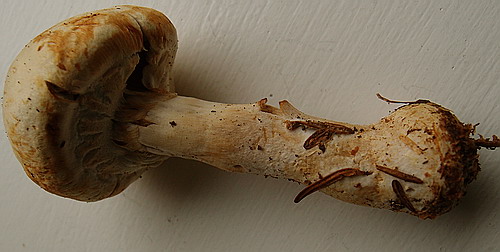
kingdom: Fungi
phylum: Basidiomycota
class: Agaricomycetes
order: Agaricales
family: Agaricaceae
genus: Agaricus
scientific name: Agaricus sylvicola
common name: gulhvid champignon
